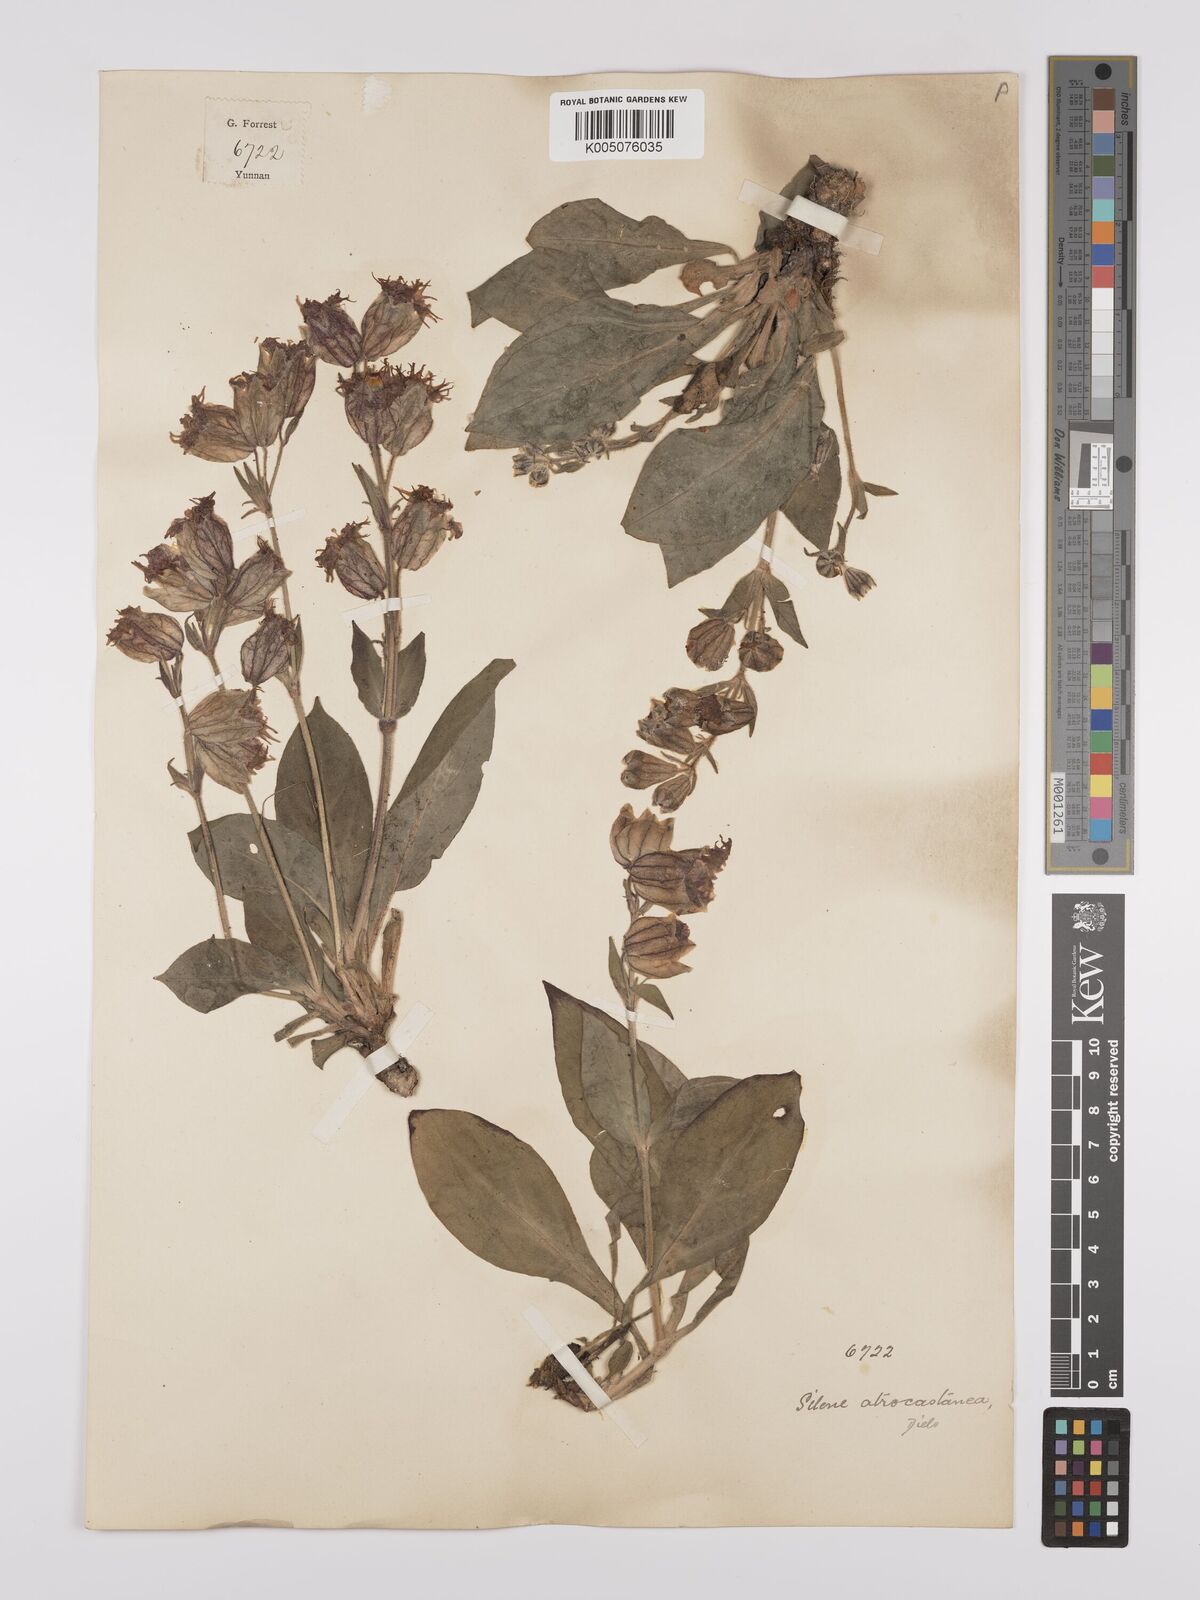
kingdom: Plantae
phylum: Tracheophyta
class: Magnoliopsida
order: Caryophyllales
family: Caryophyllaceae
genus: Silene
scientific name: Silene atrocastanea
